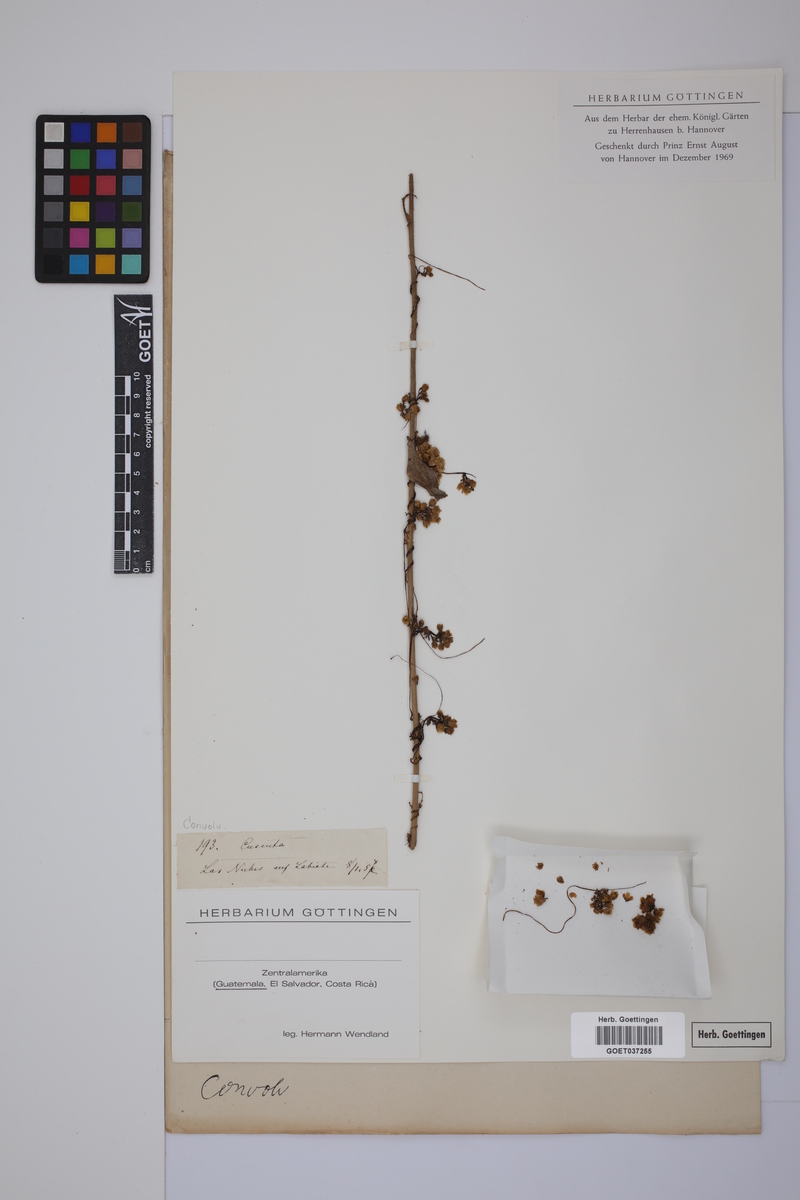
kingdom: Plantae
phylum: Tracheophyta
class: Magnoliopsida
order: Solanales
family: Convolvulaceae
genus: Cuscuta
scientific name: Cuscuta
